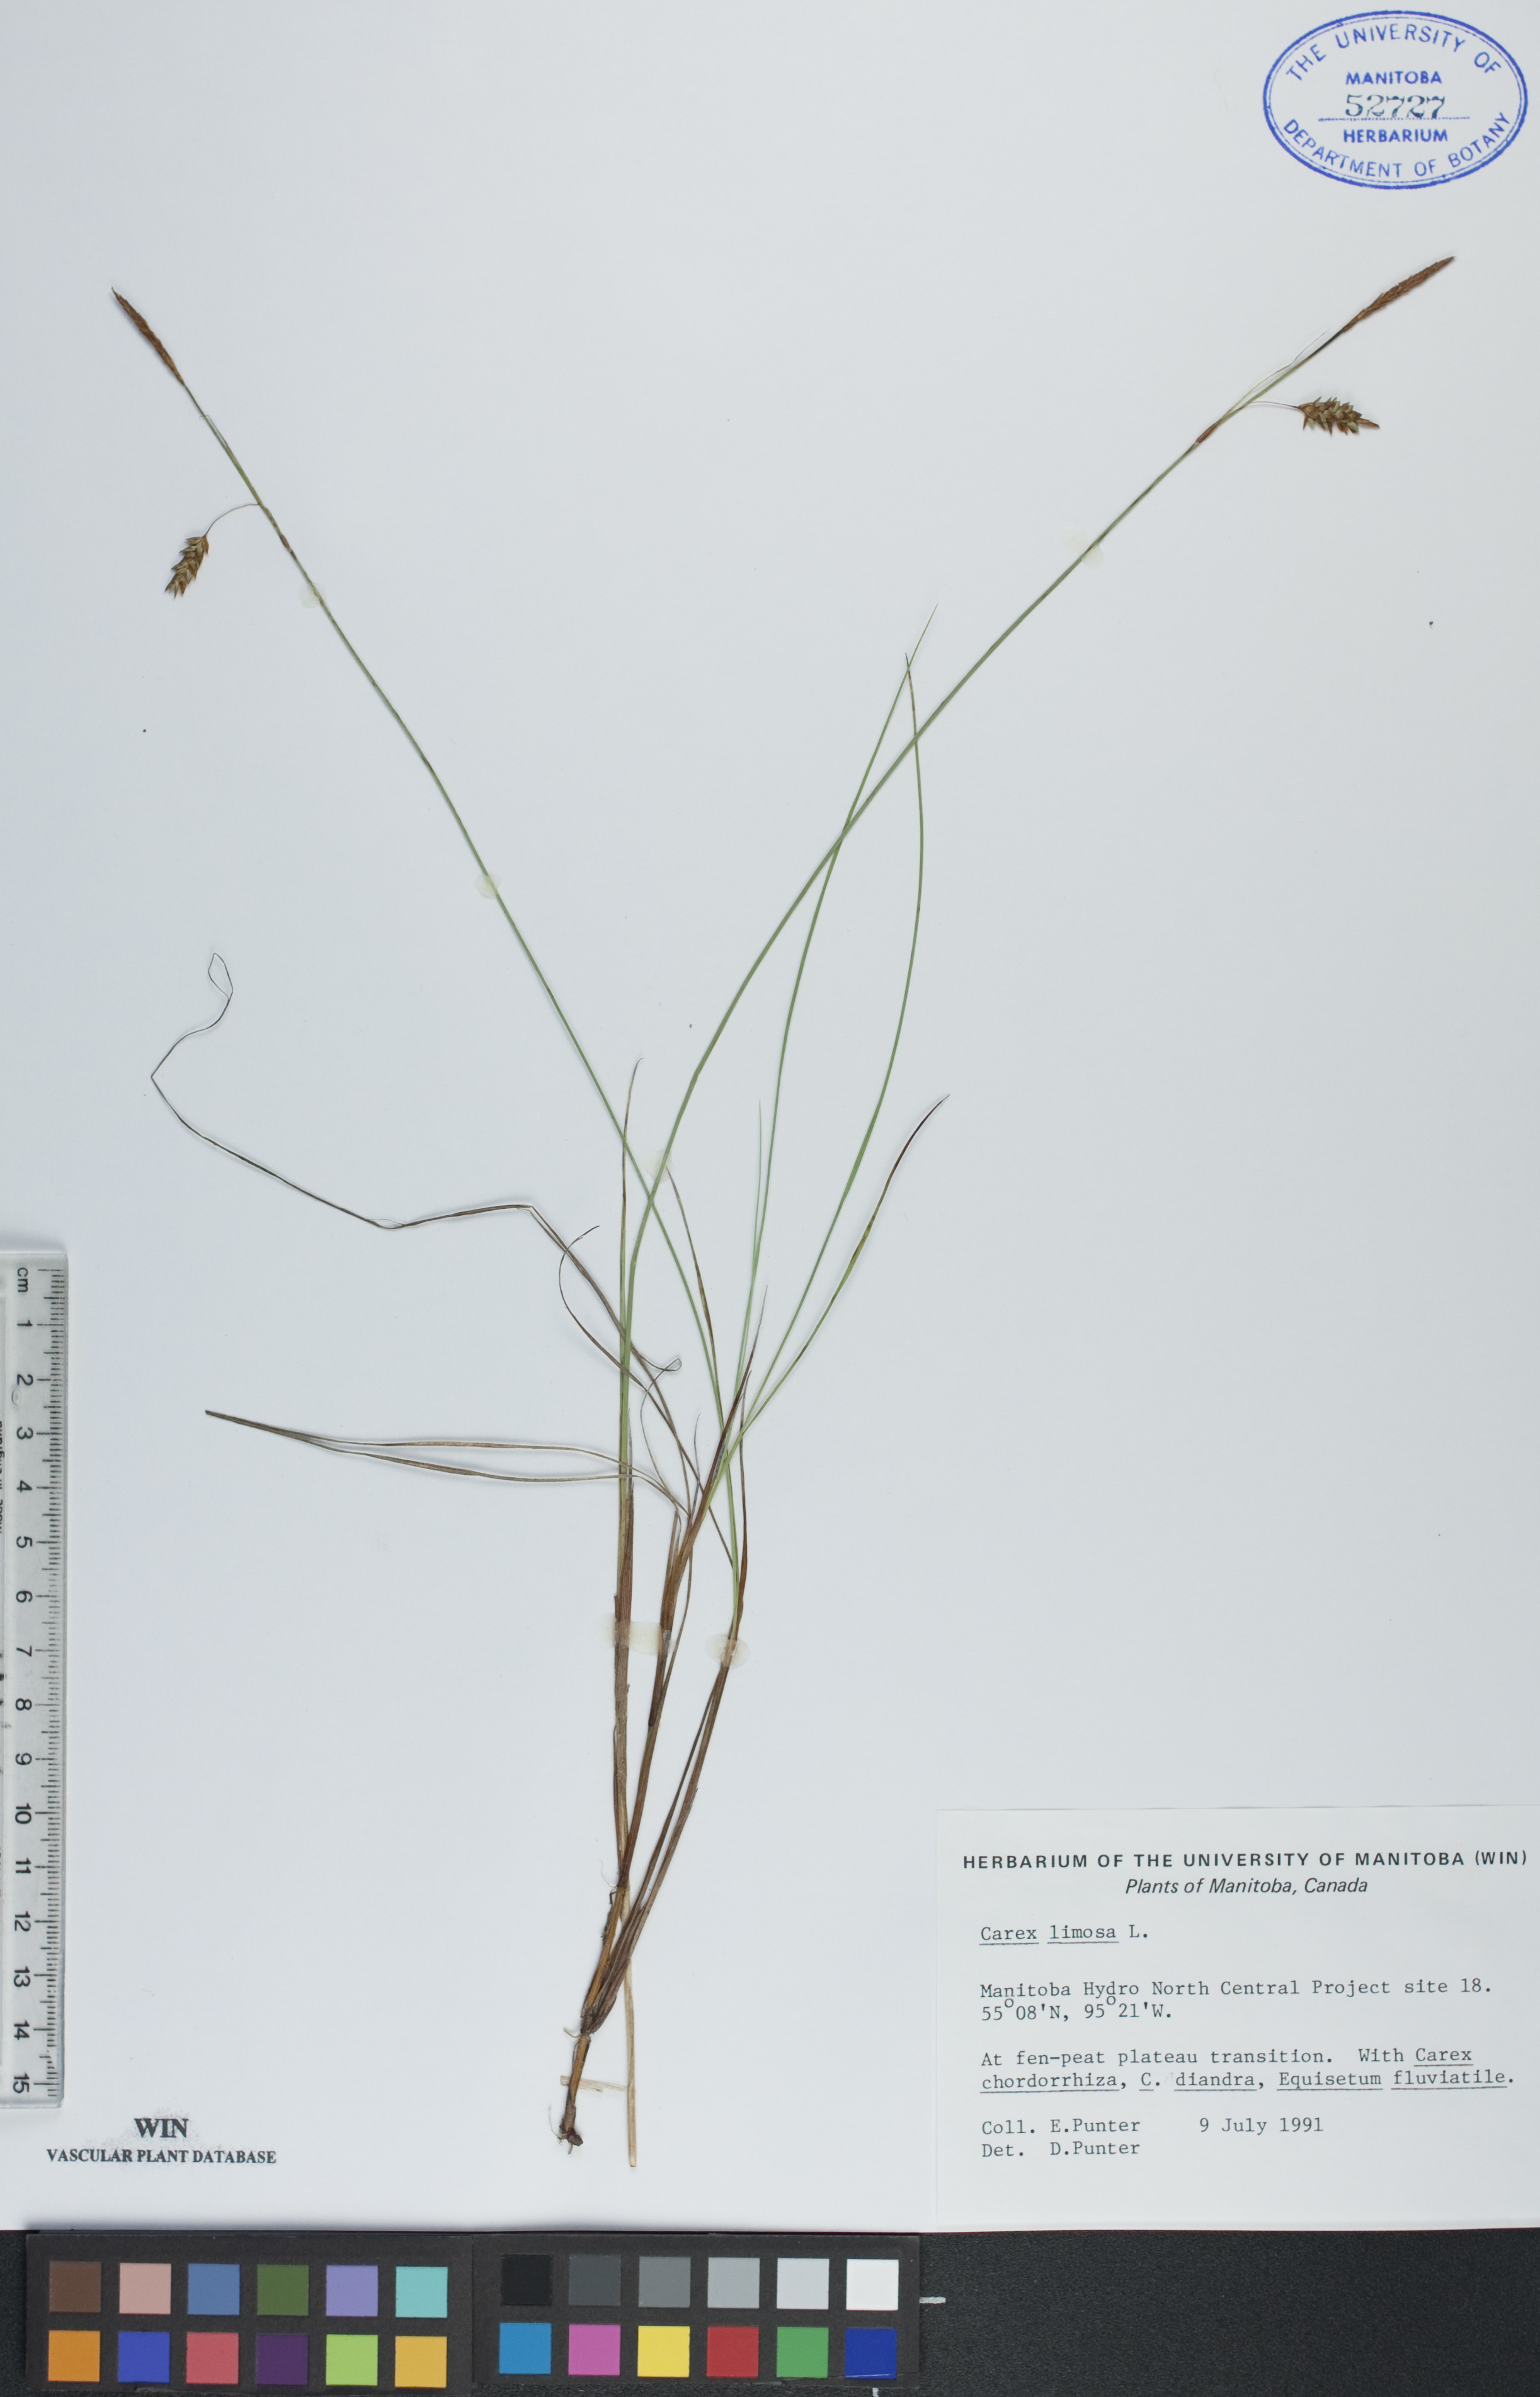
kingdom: Plantae
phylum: Tracheophyta
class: Liliopsida
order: Poales
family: Cyperaceae
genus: Carex
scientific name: Carex limosa
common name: Bog sedge
